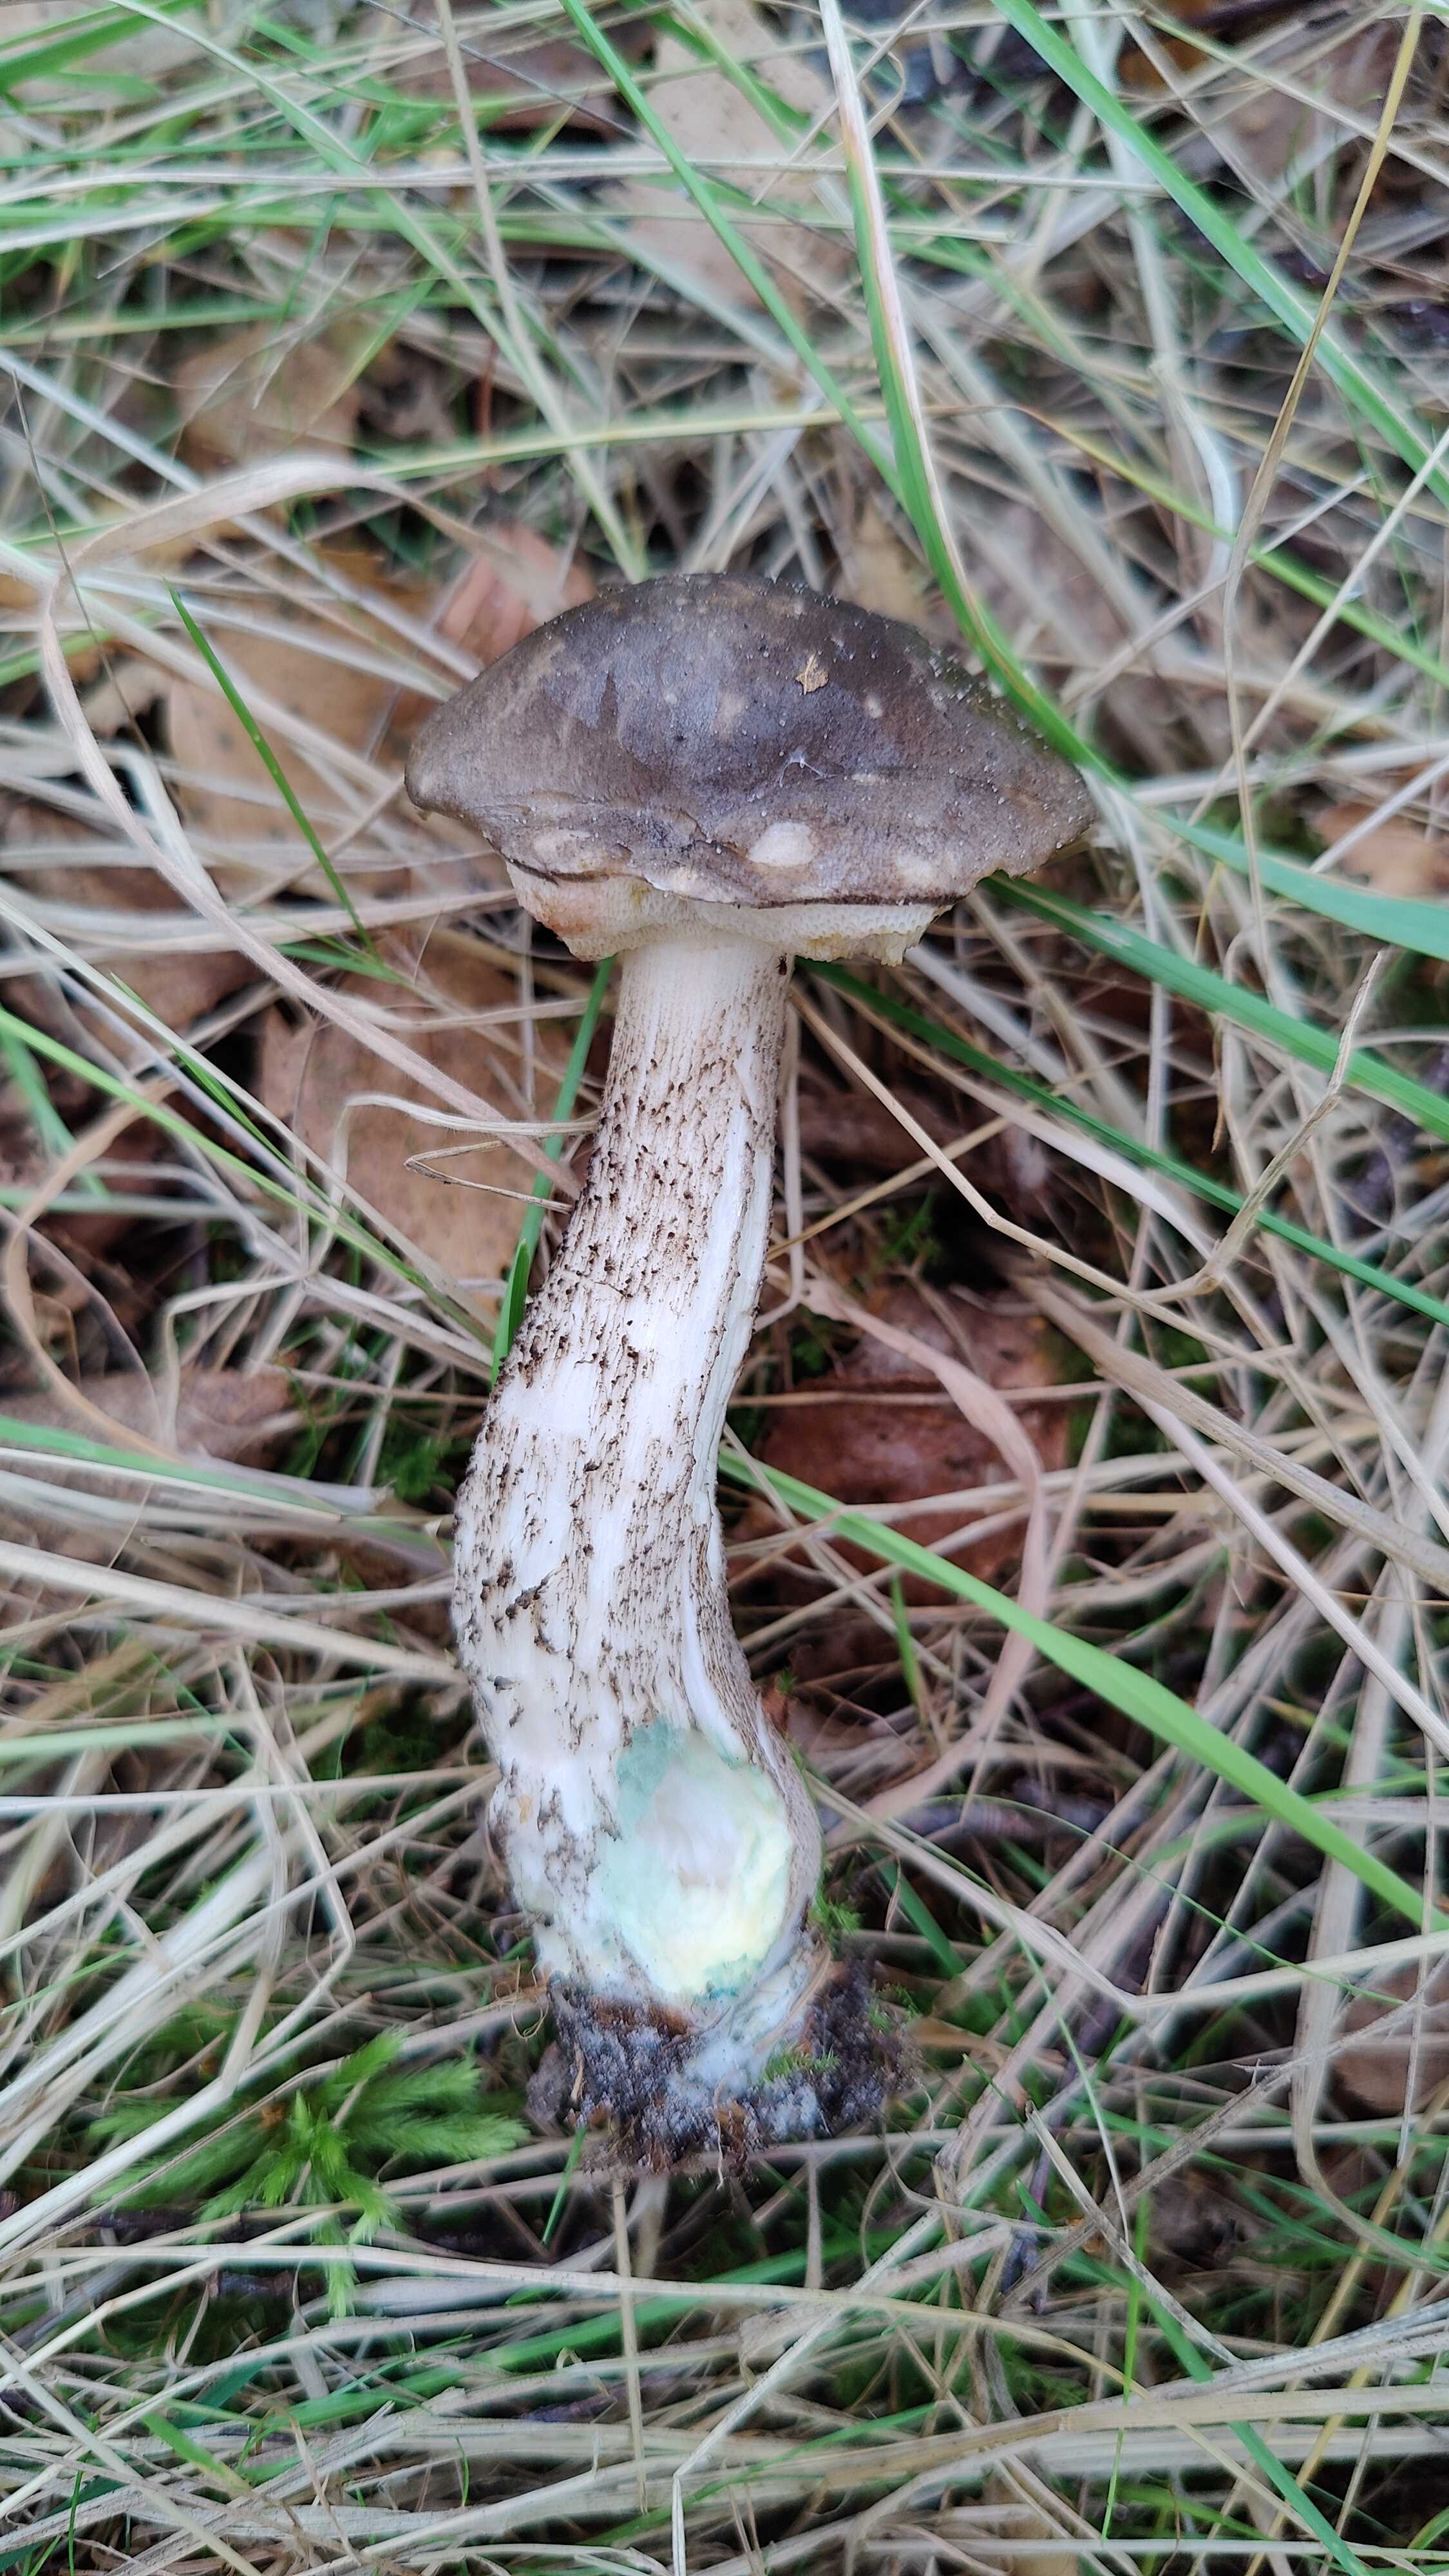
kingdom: Fungi
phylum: Basidiomycota
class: Agaricomycetes
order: Boletales
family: Boletaceae
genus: Leccinum
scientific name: Leccinum variicolor
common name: flammet skælrørhat
